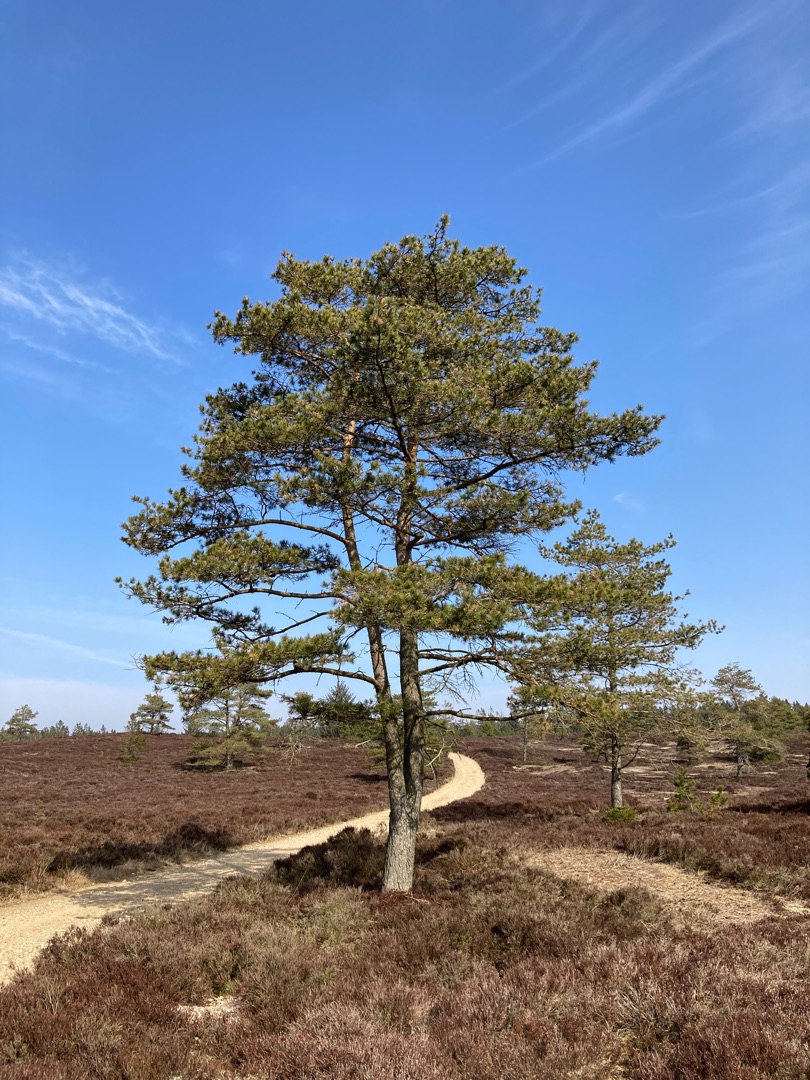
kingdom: Plantae
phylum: Tracheophyta
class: Pinopsida
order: Pinales
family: Pinaceae
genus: Pinus
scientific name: Pinus sylvestris
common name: Skov-fyr
